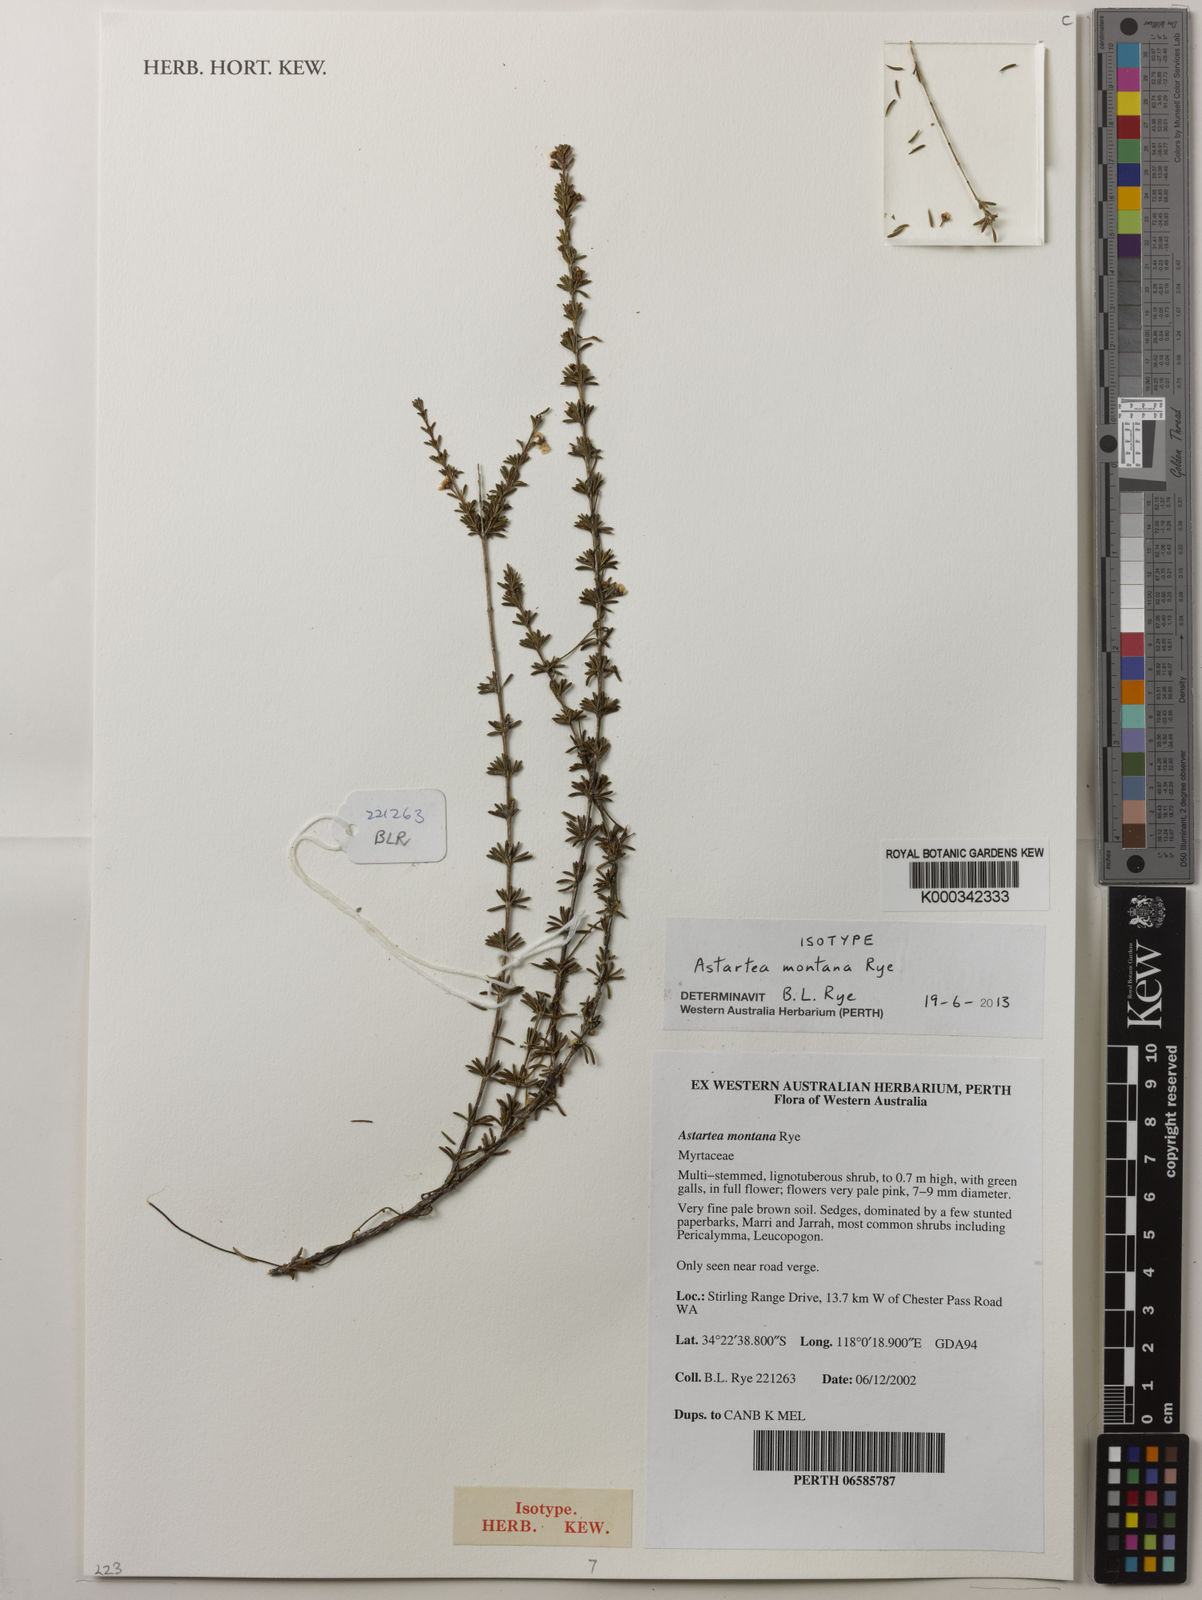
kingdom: Plantae
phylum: Tracheophyta
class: Magnoliopsida
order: Myrtales
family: Myrtaceae
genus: Astartea
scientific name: Astartea montana
